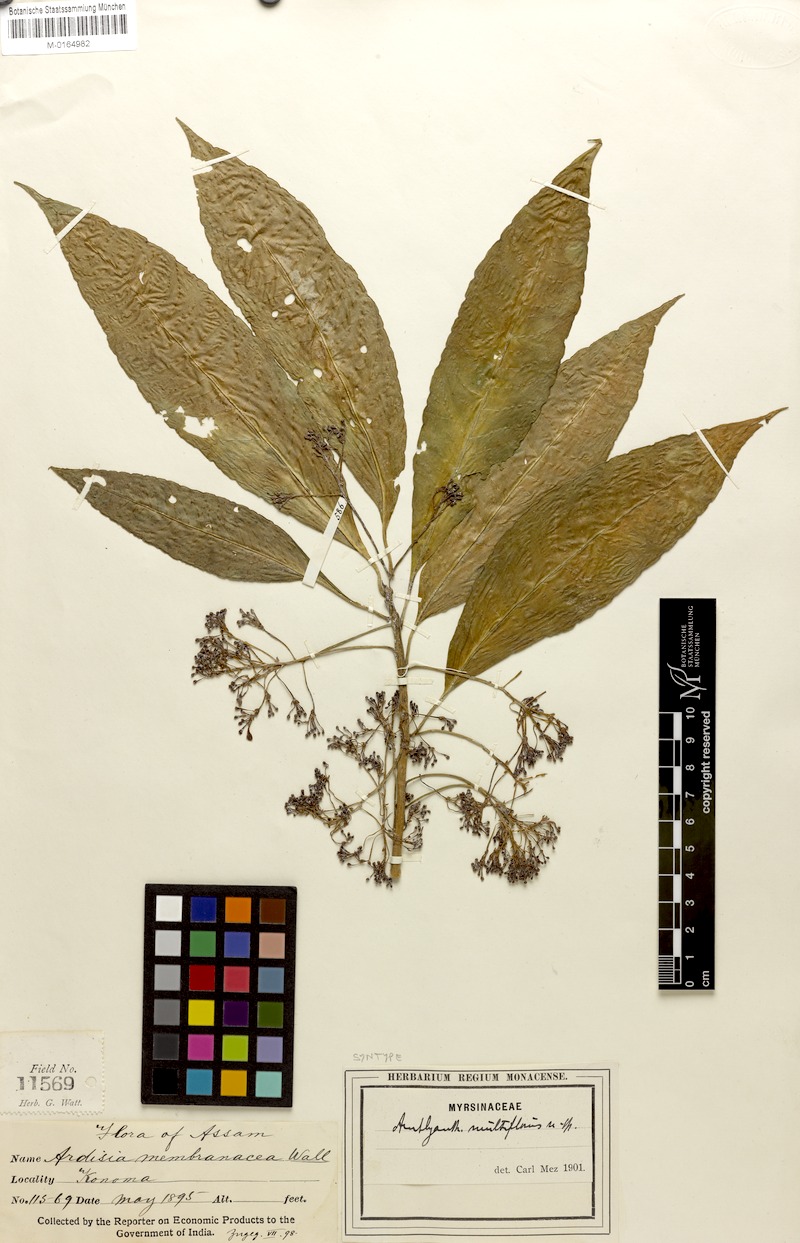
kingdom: Plantae
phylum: Tracheophyta
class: Magnoliopsida
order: Ericales
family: Primulaceae
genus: Amblyanthus
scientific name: Amblyanthus multiflorus
